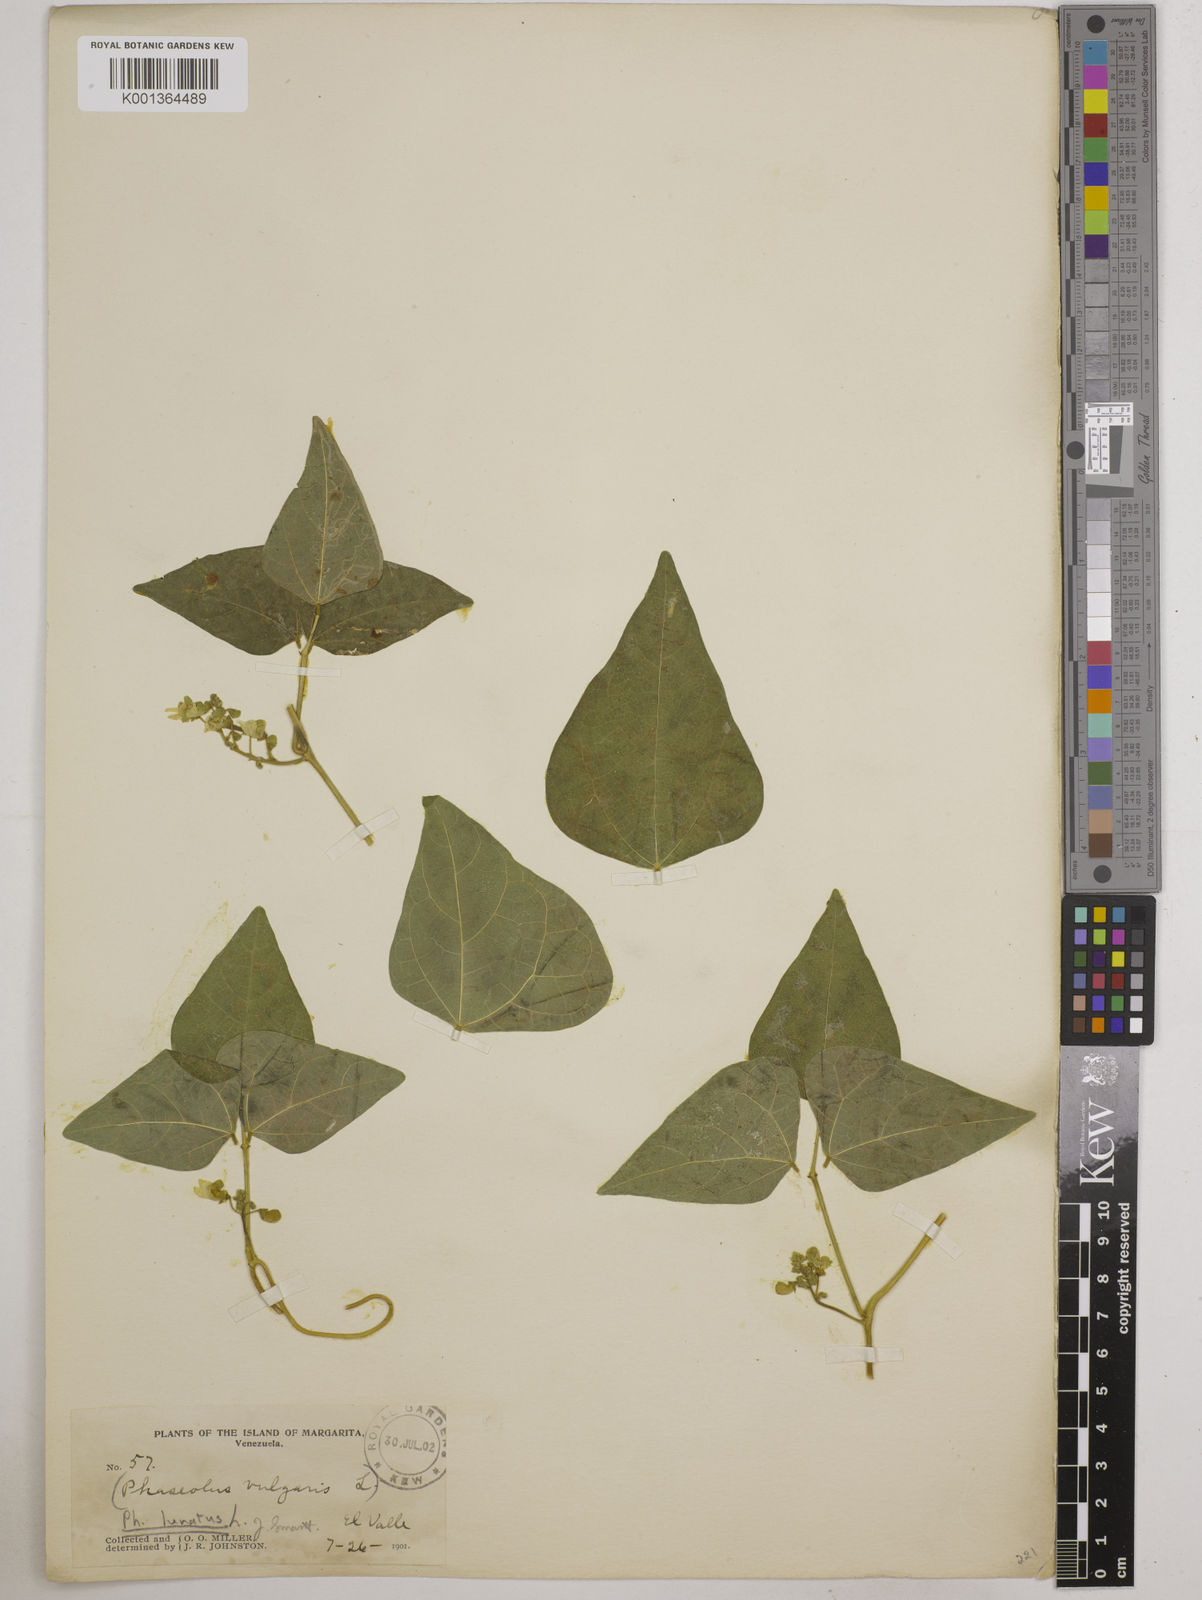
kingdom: Plantae
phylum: Tracheophyta
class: Magnoliopsida
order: Fabales
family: Fabaceae
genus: Phaseolus
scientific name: Phaseolus lunatus
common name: Sieva bean
